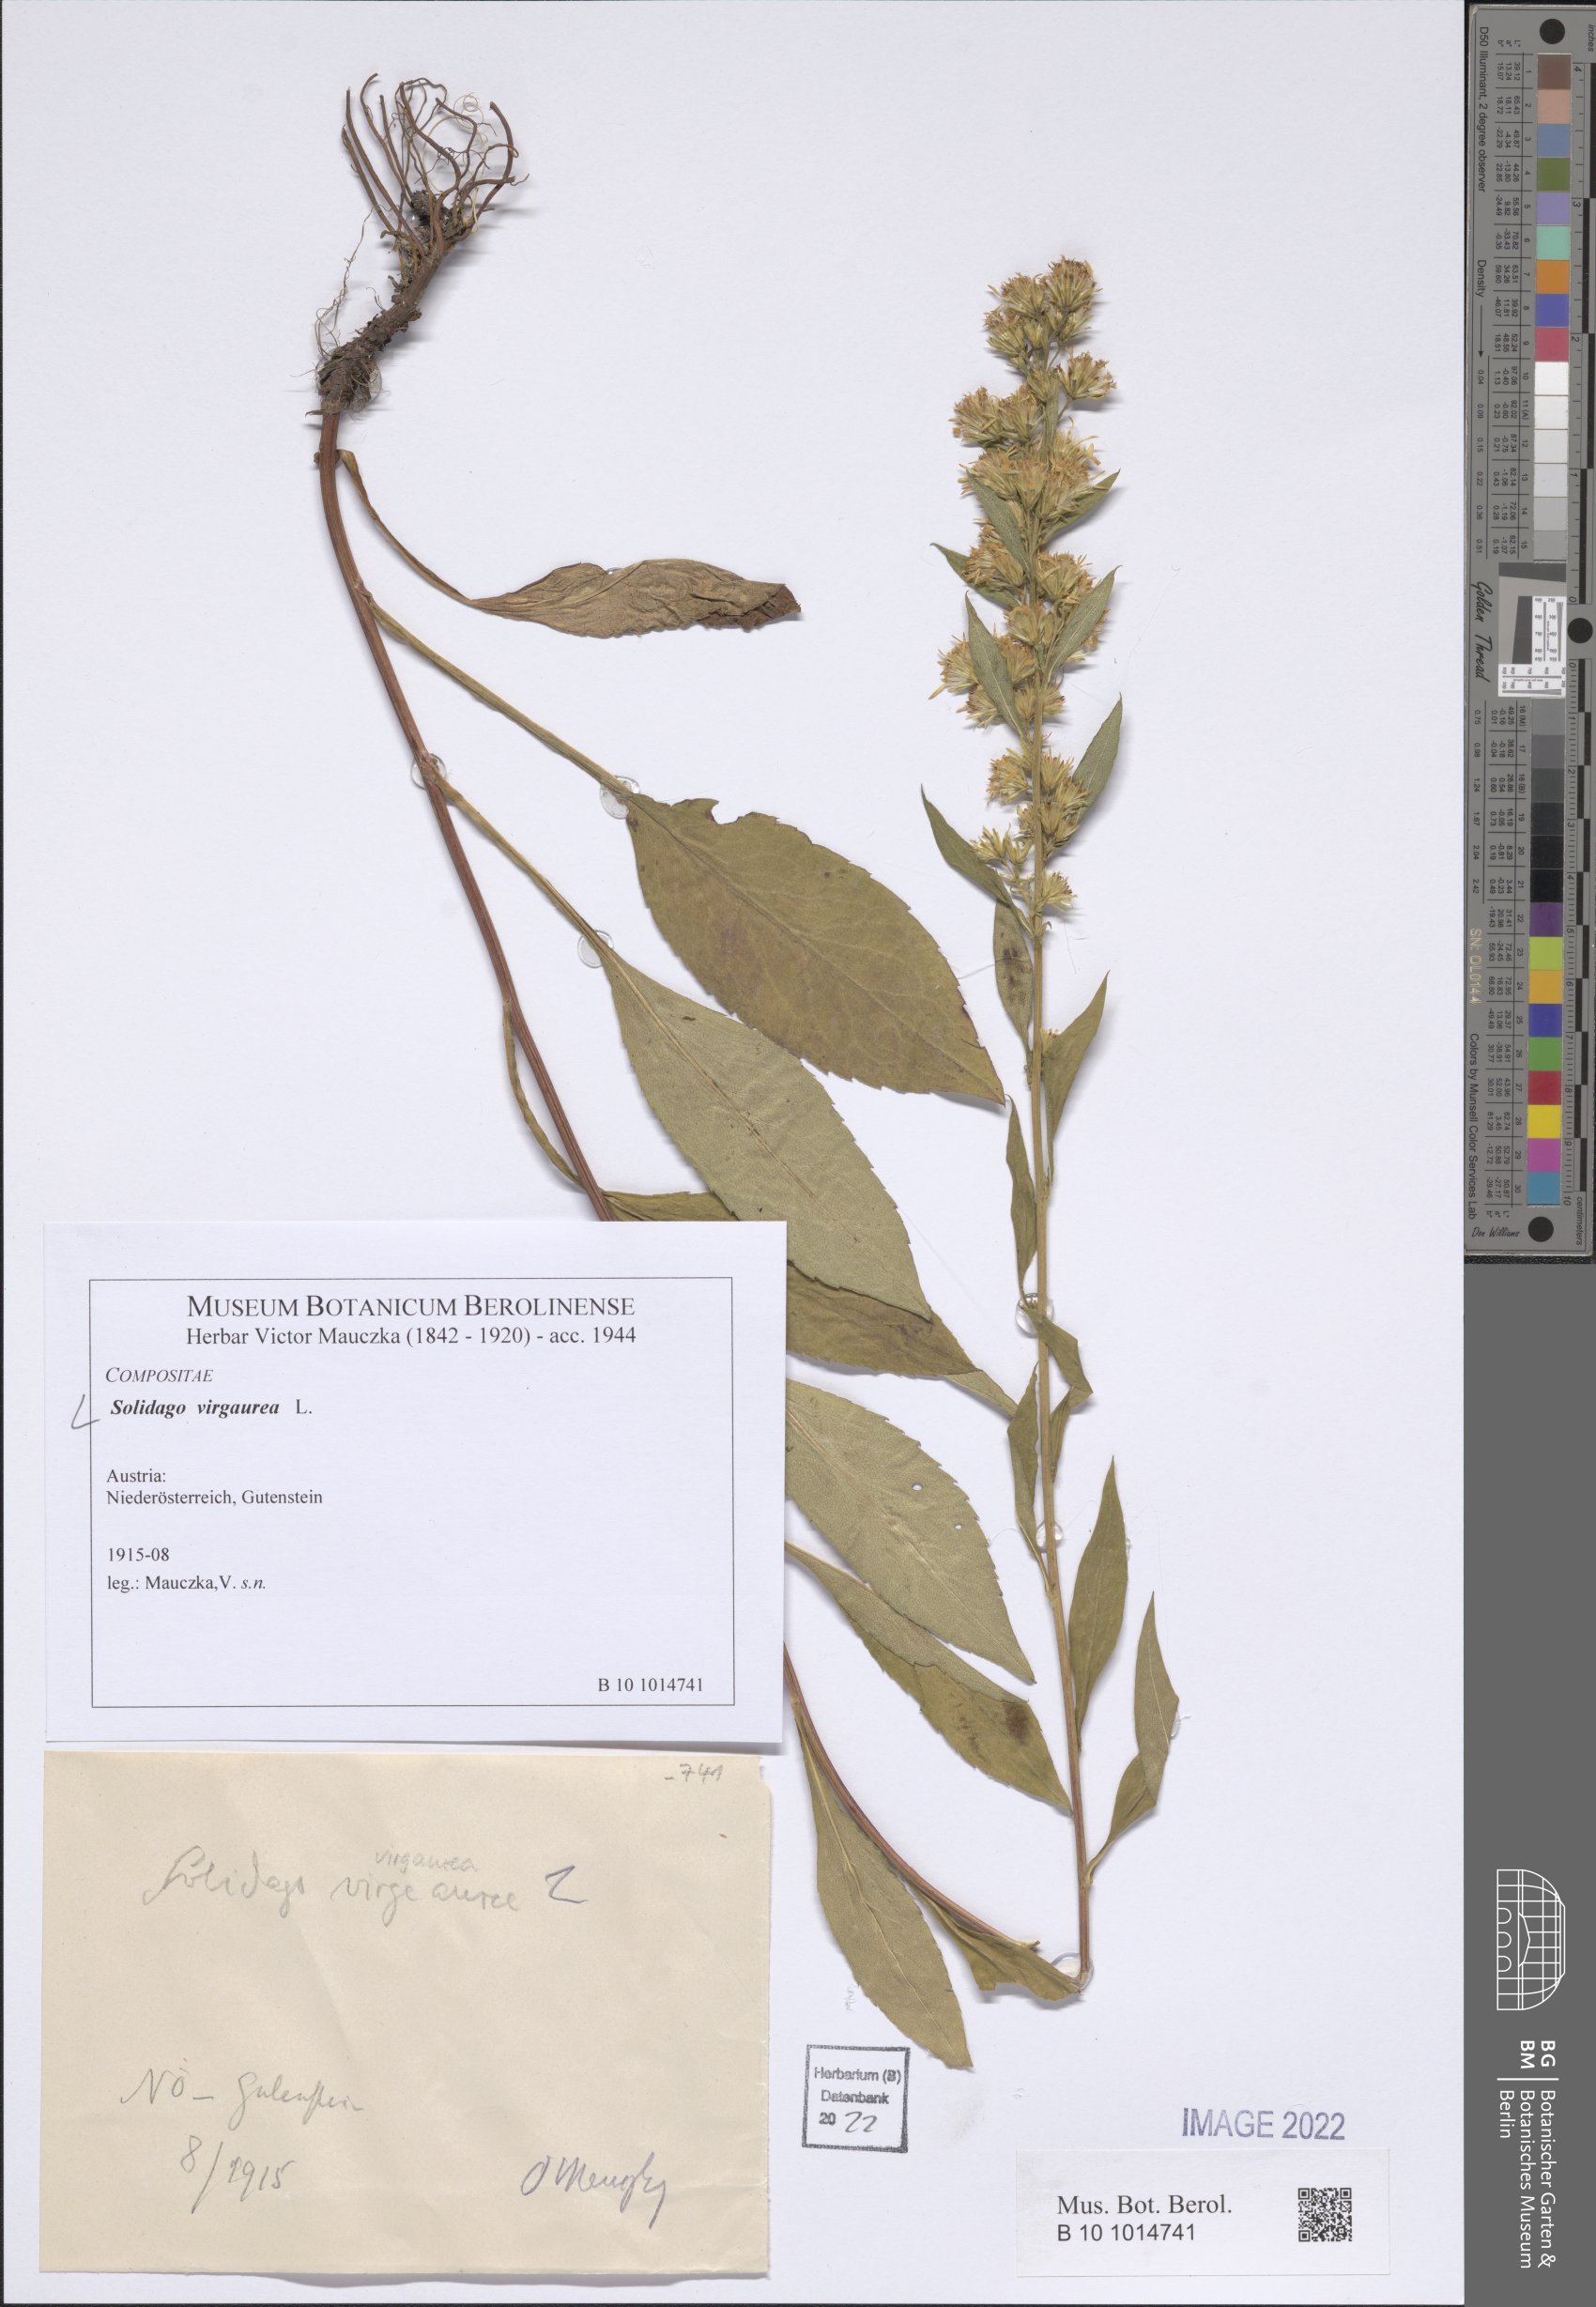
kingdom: Plantae
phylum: Tracheophyta
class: Magnoliopsida
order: Asterales
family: Asteraceae
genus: Solidago
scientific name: Solidago virgaurea
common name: Goldenrod
